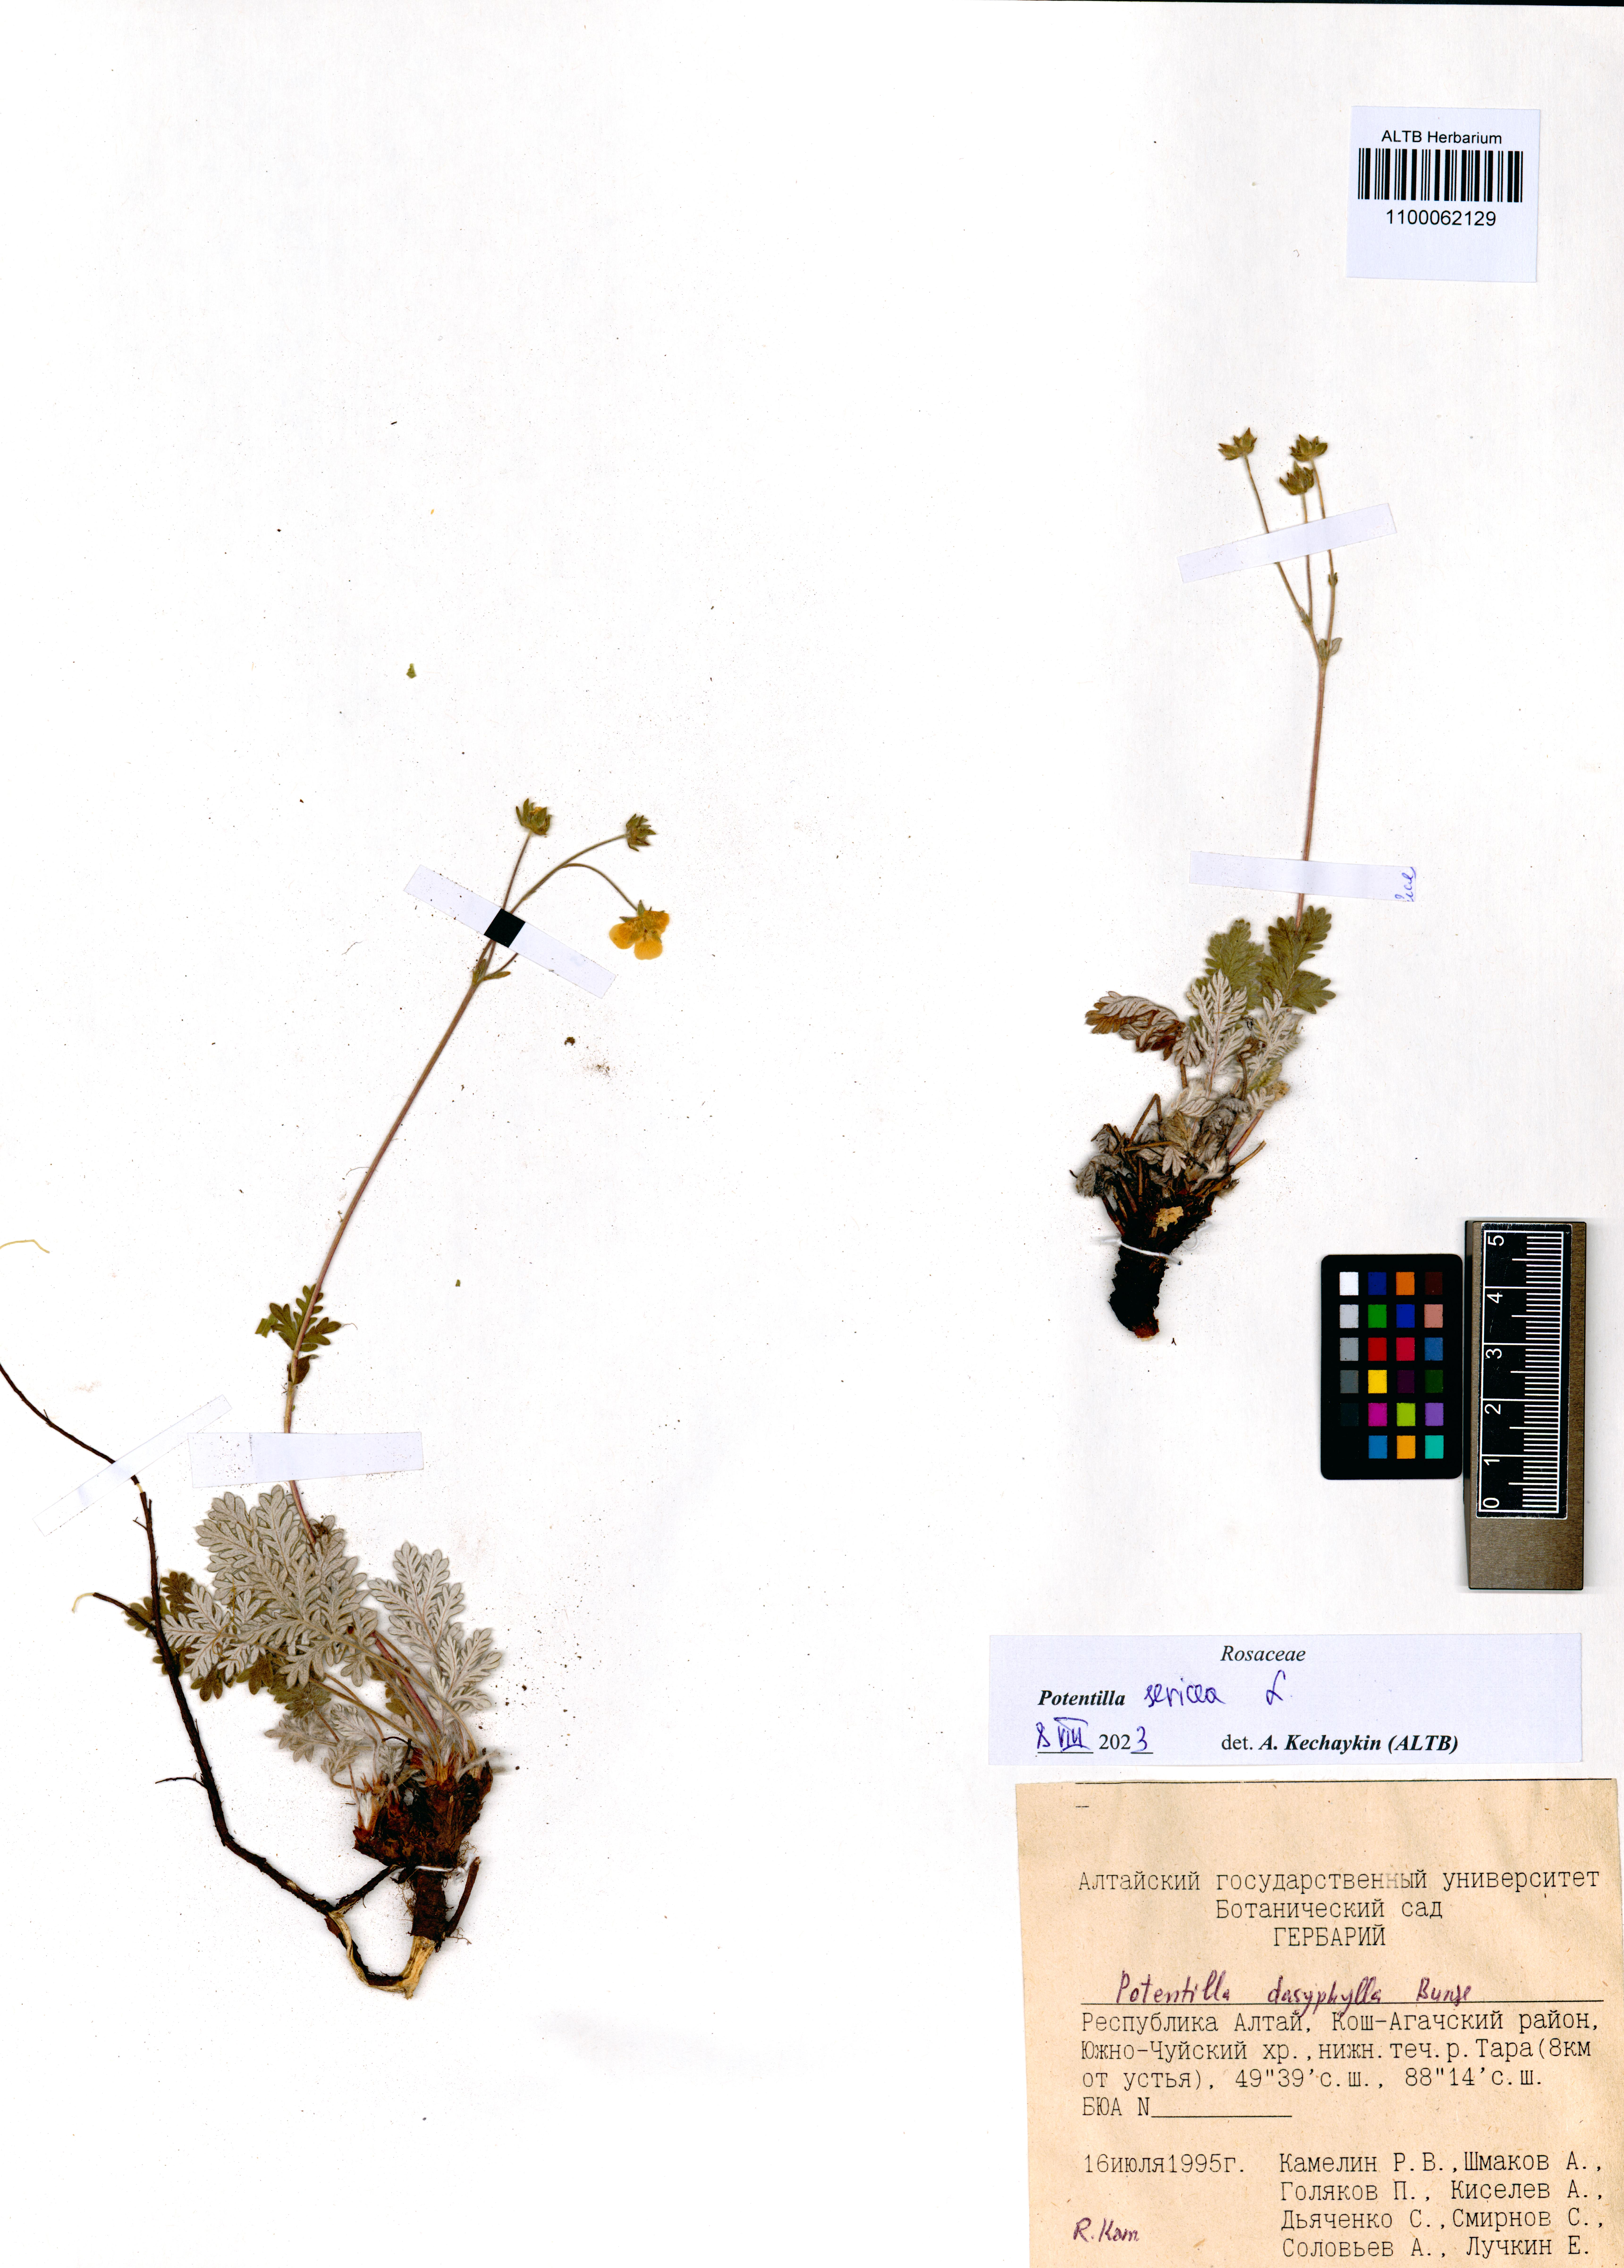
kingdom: Plantae
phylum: Tracheophyta
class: Magnoliopsida
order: Rosales
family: Rosaceae
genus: Potentilla
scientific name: Potentilla sericea
